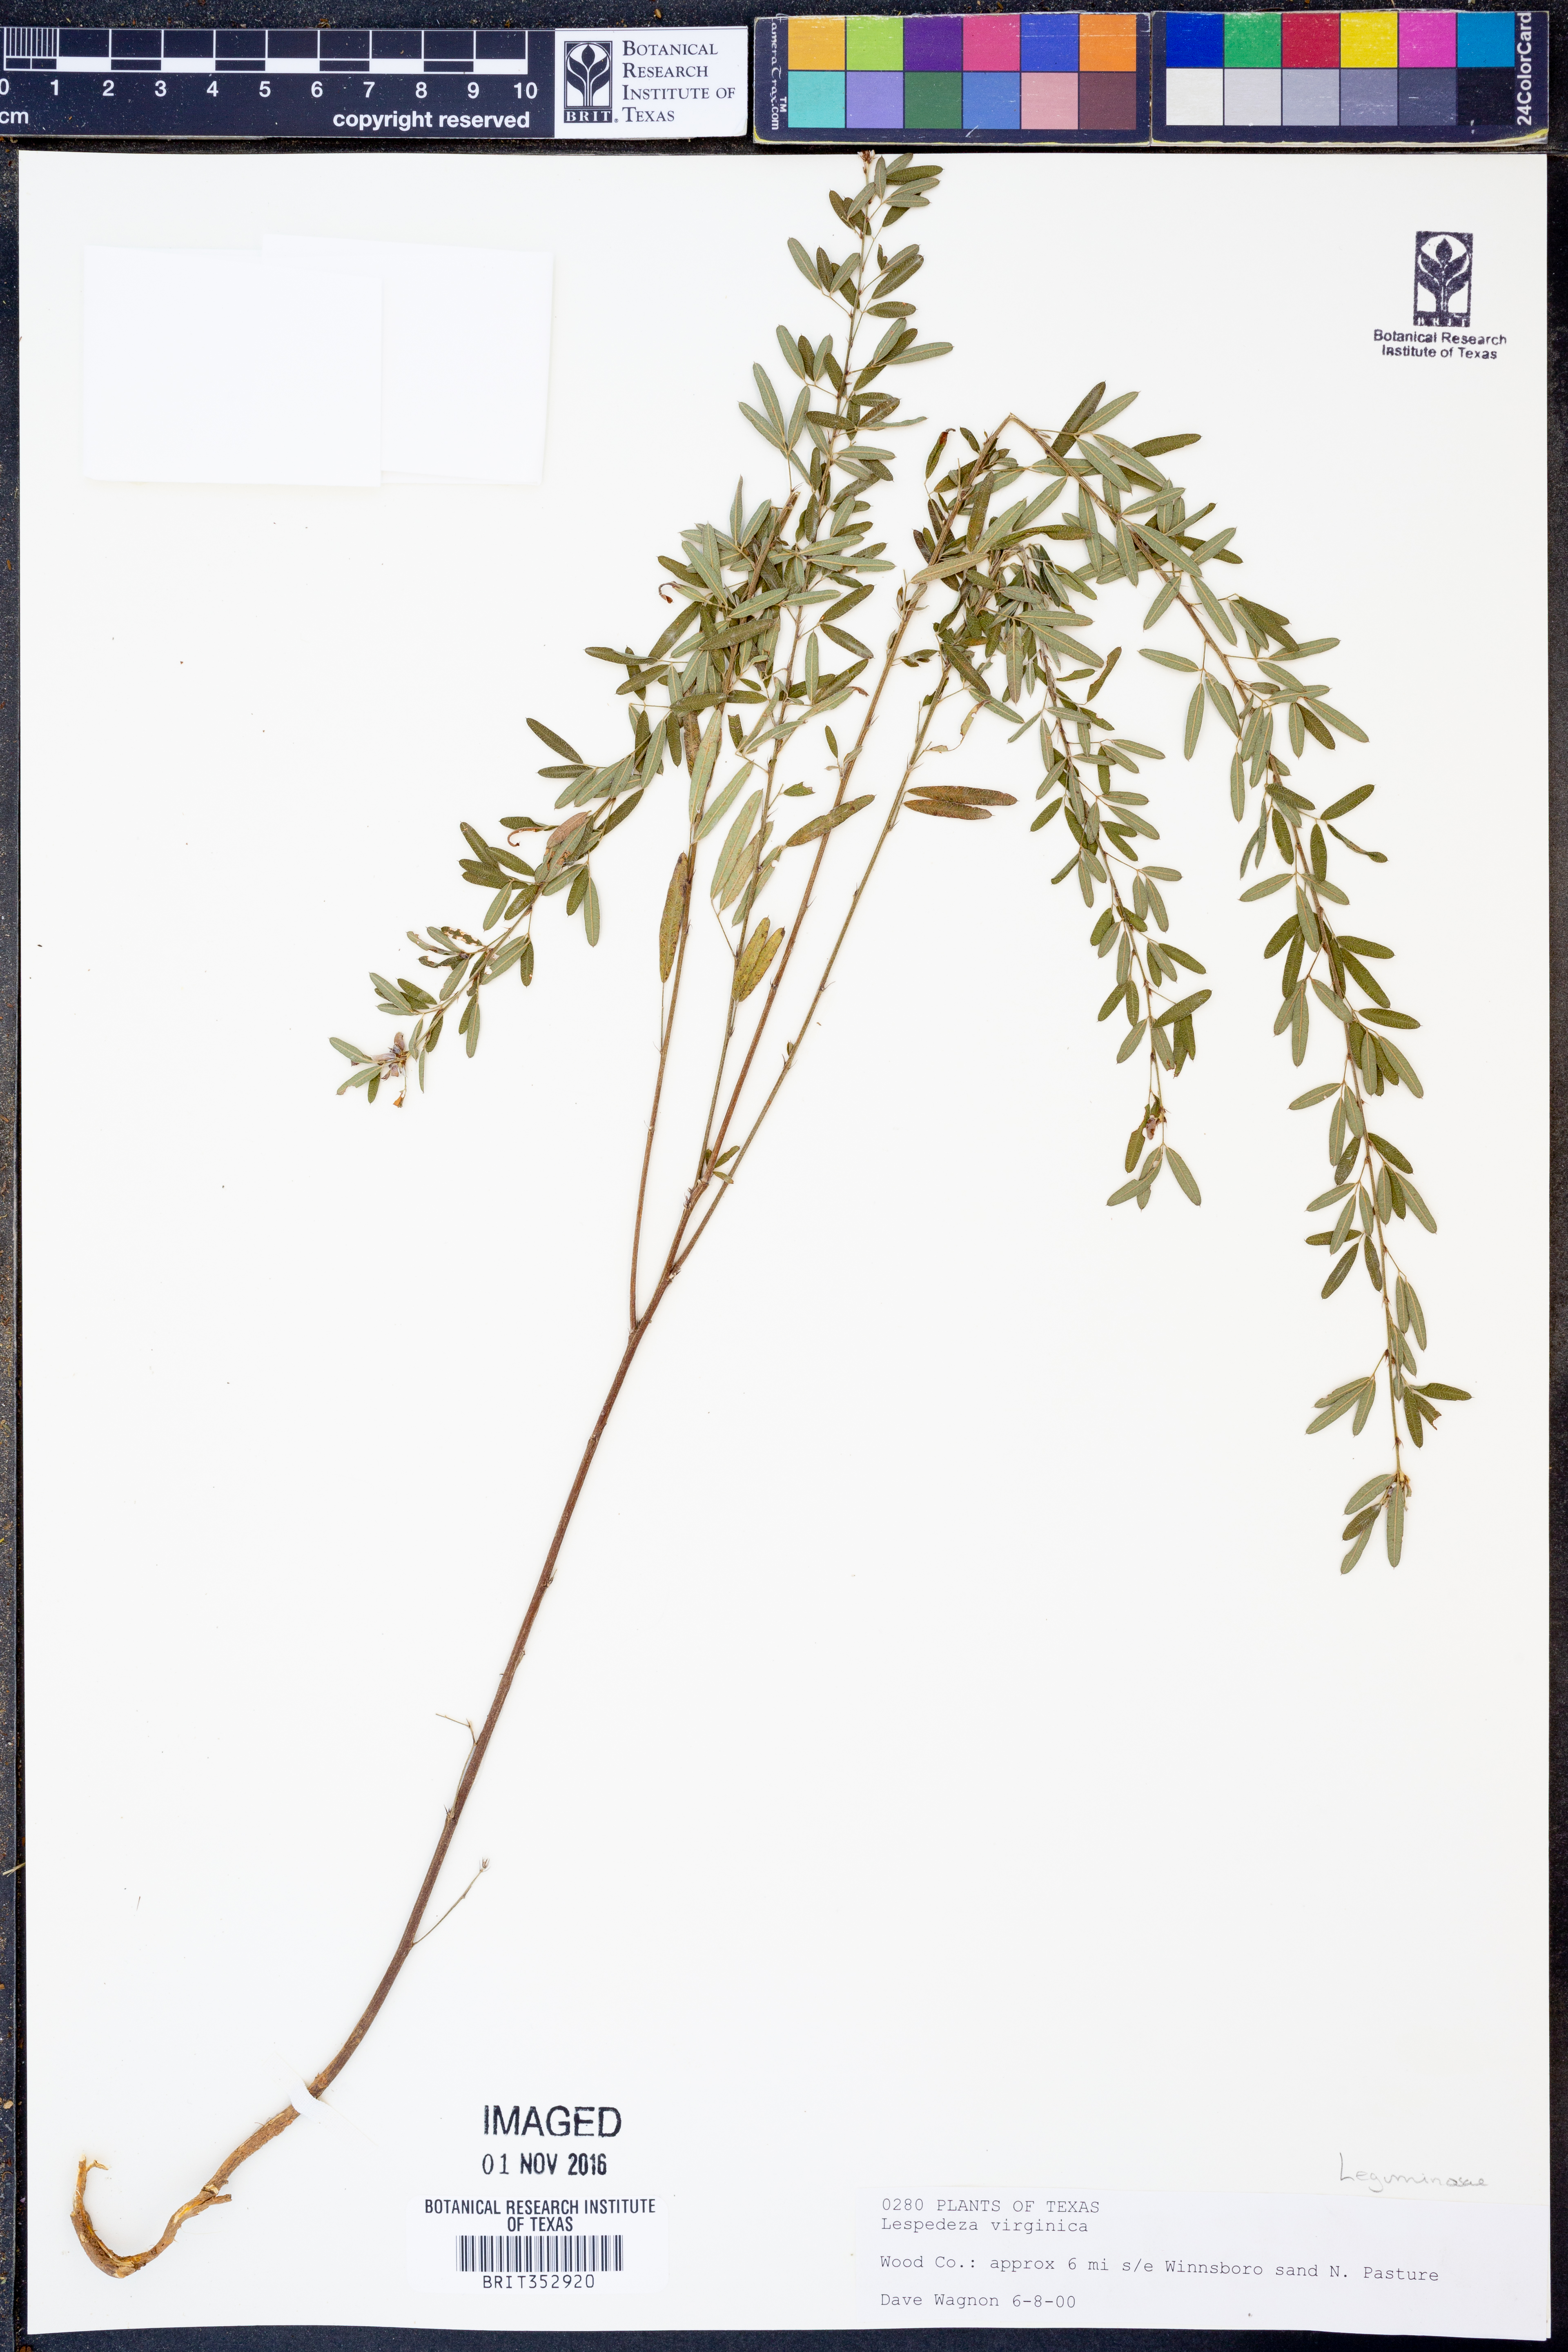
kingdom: Plantae
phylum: Tracheophyta
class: Magnoliopsida
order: Fabales
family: Fabaceae
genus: Lespedeza
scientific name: Lespedeza virginica
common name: Slender bush-clover
